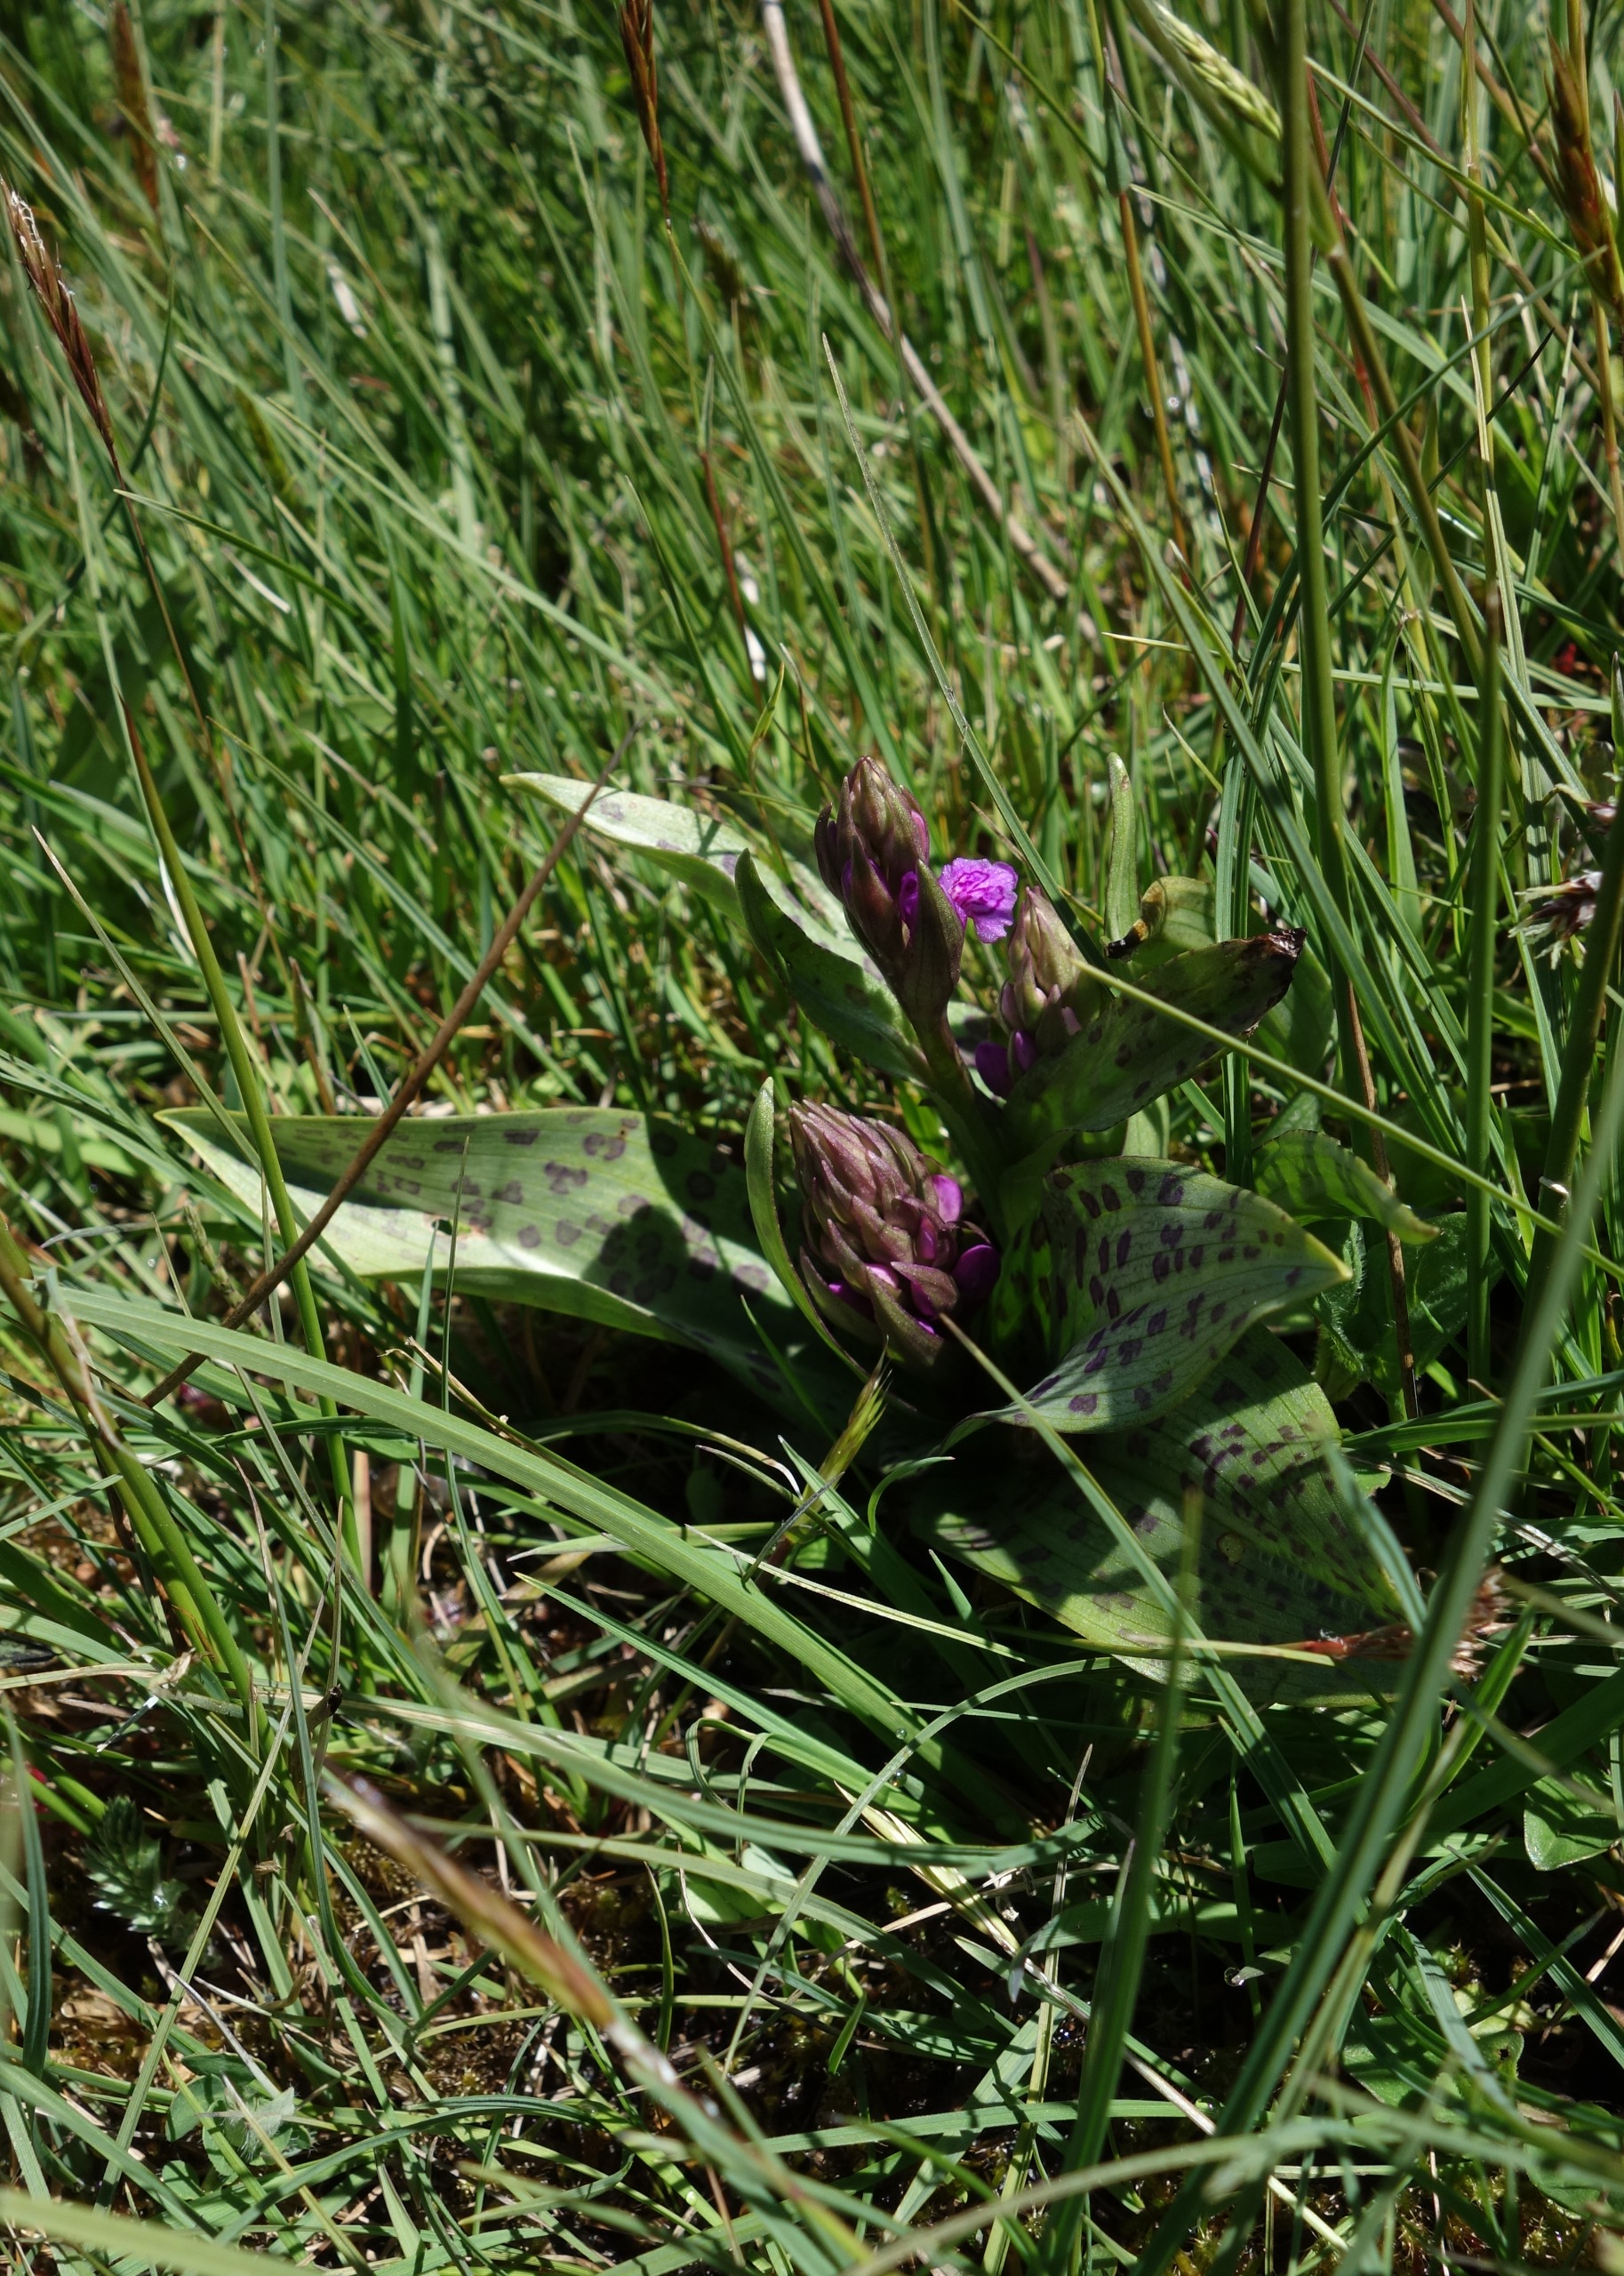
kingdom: Plantae
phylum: Tracheophyta
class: Liliopsida
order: Asparagales
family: Orchidaceae
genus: Dactylorhiza
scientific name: Dactylorhiza majalis
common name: Maj-gøgeurt
